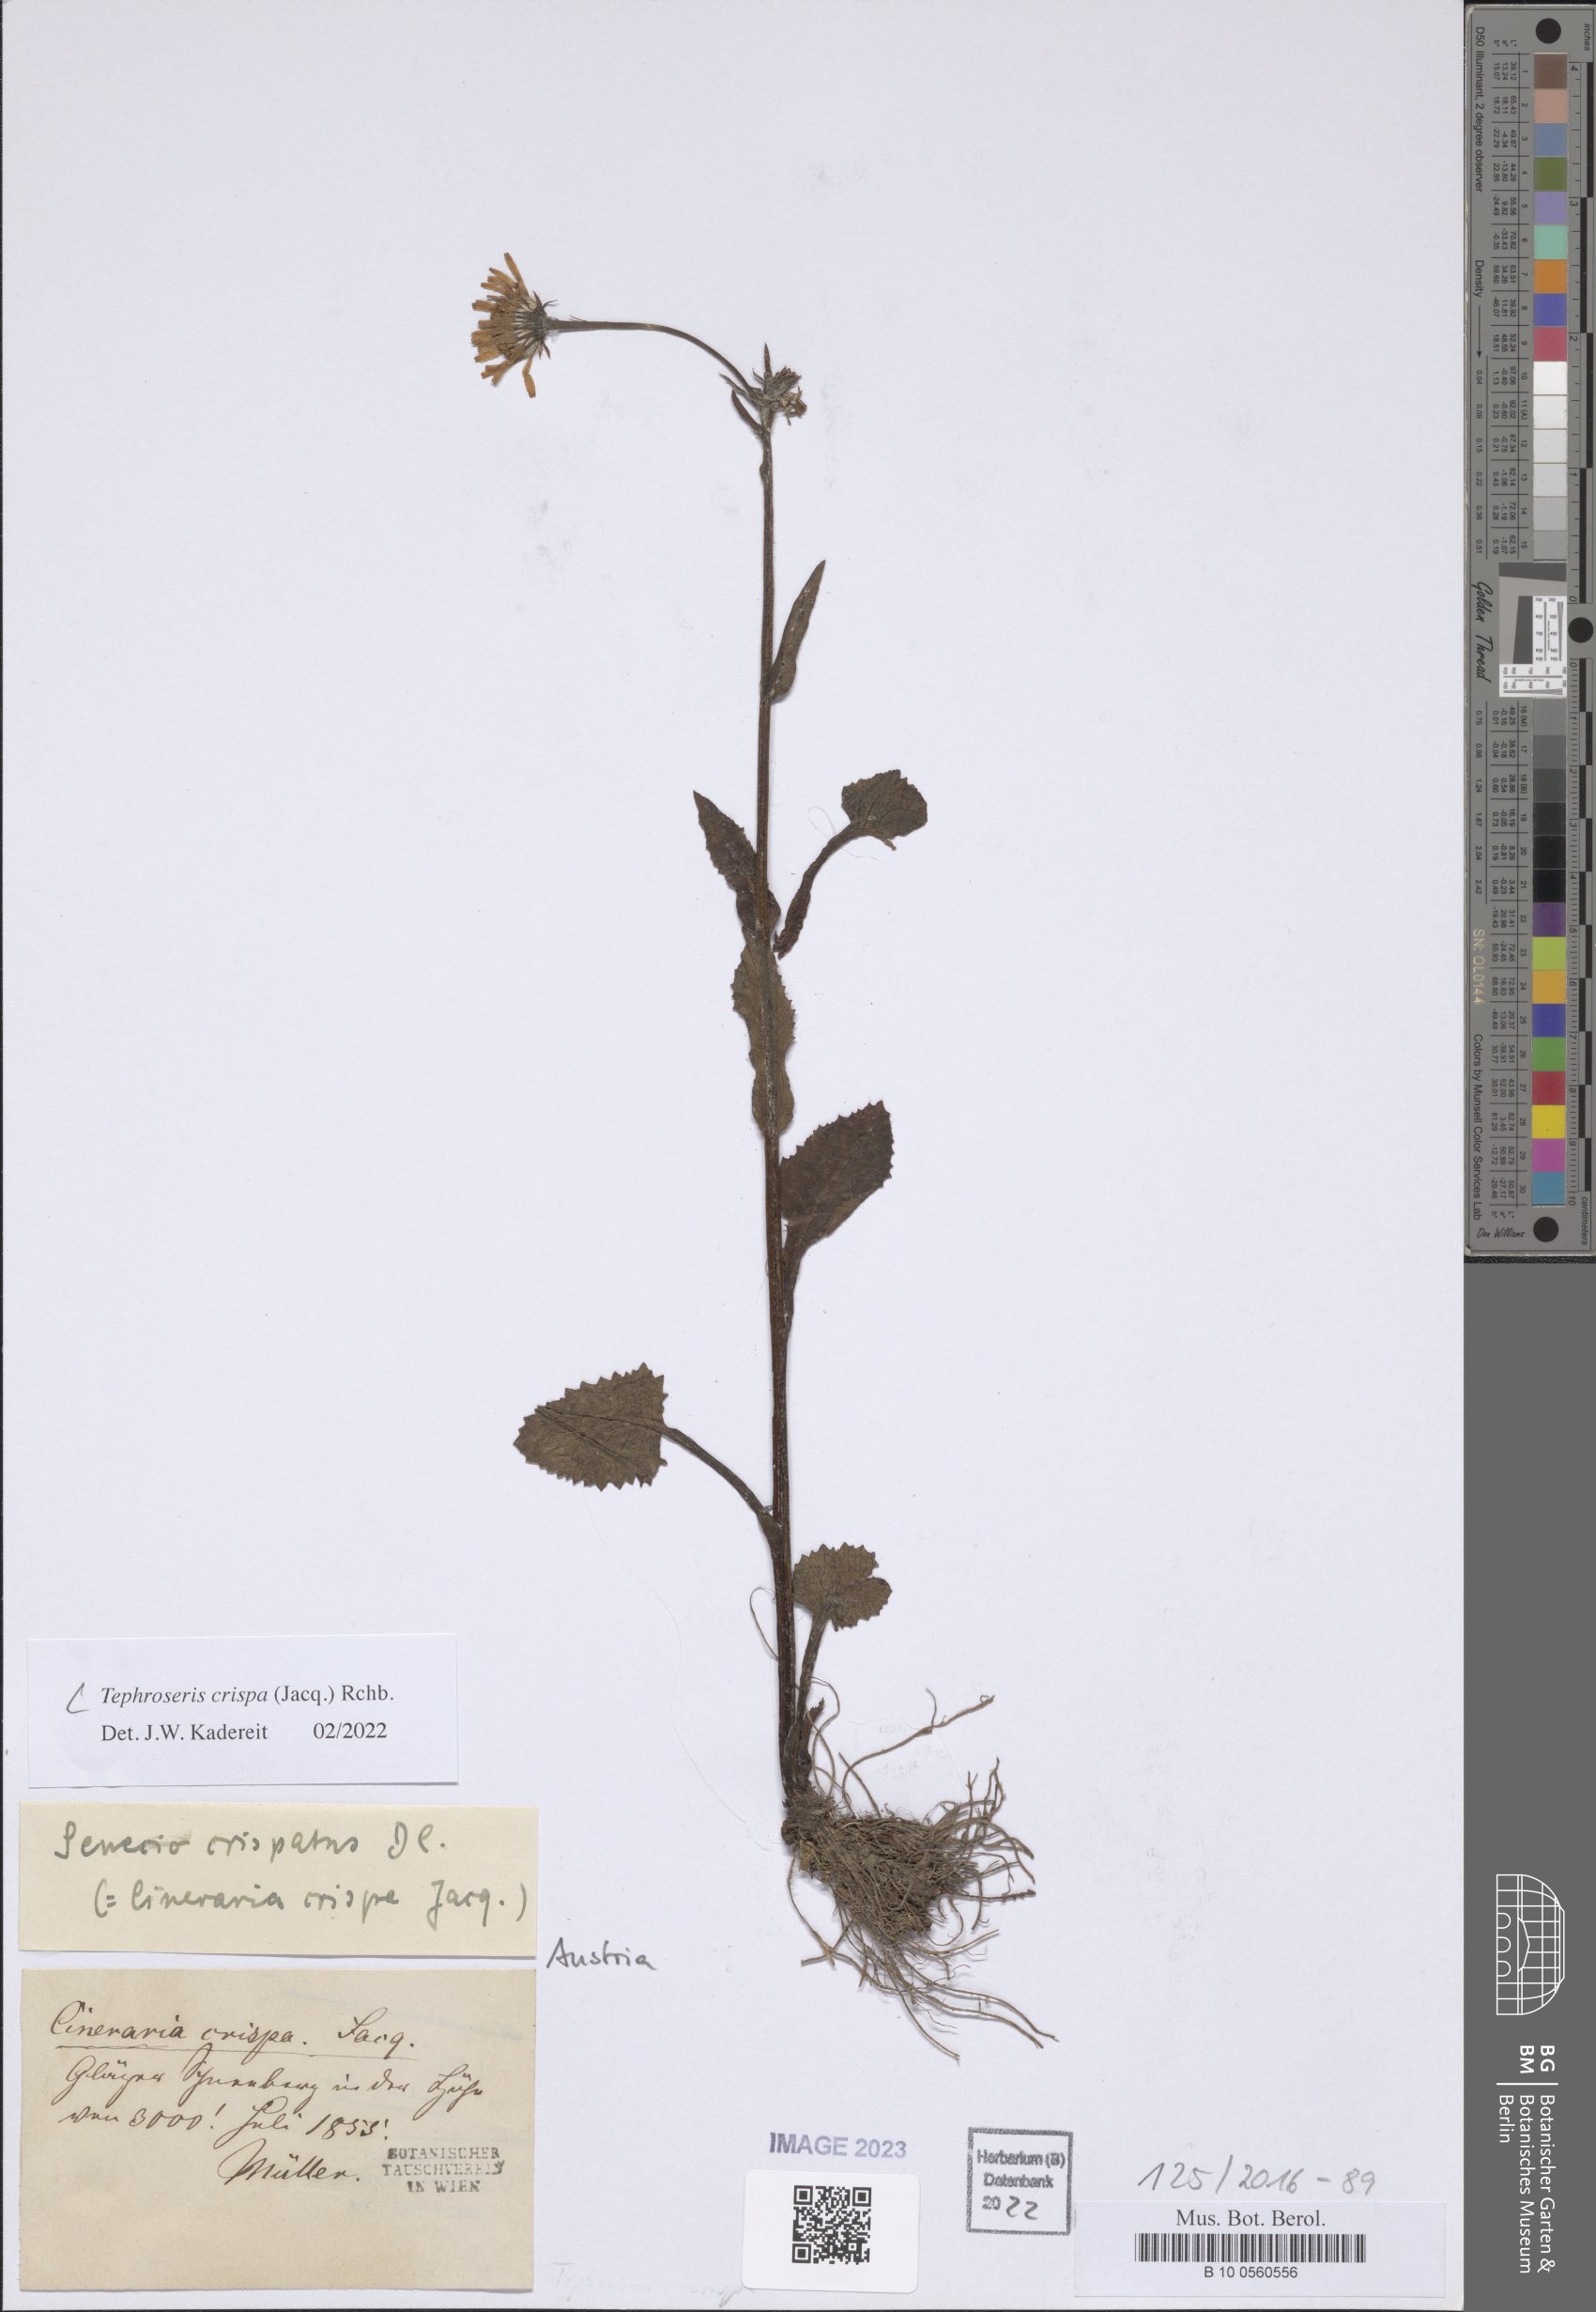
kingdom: Plantae
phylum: Tracheophyta
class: Magnoliopsida
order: Asterales
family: Asteraceae
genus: Tephroseris
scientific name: Tephroseris crispa
